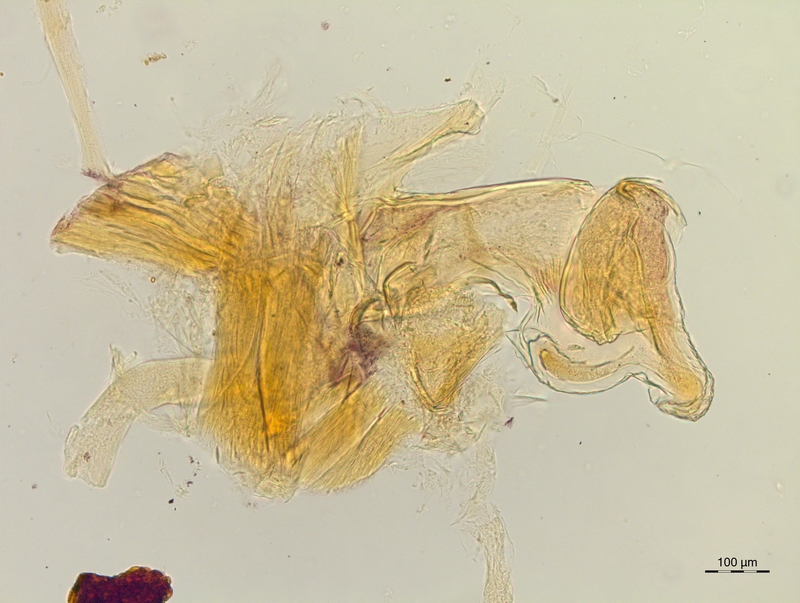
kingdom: Animalia
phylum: Arthropoda
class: Diplopoda
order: Chordeumatida
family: Craspedosomatidae
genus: Craspedosoma
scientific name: Craspedosoma slavum
